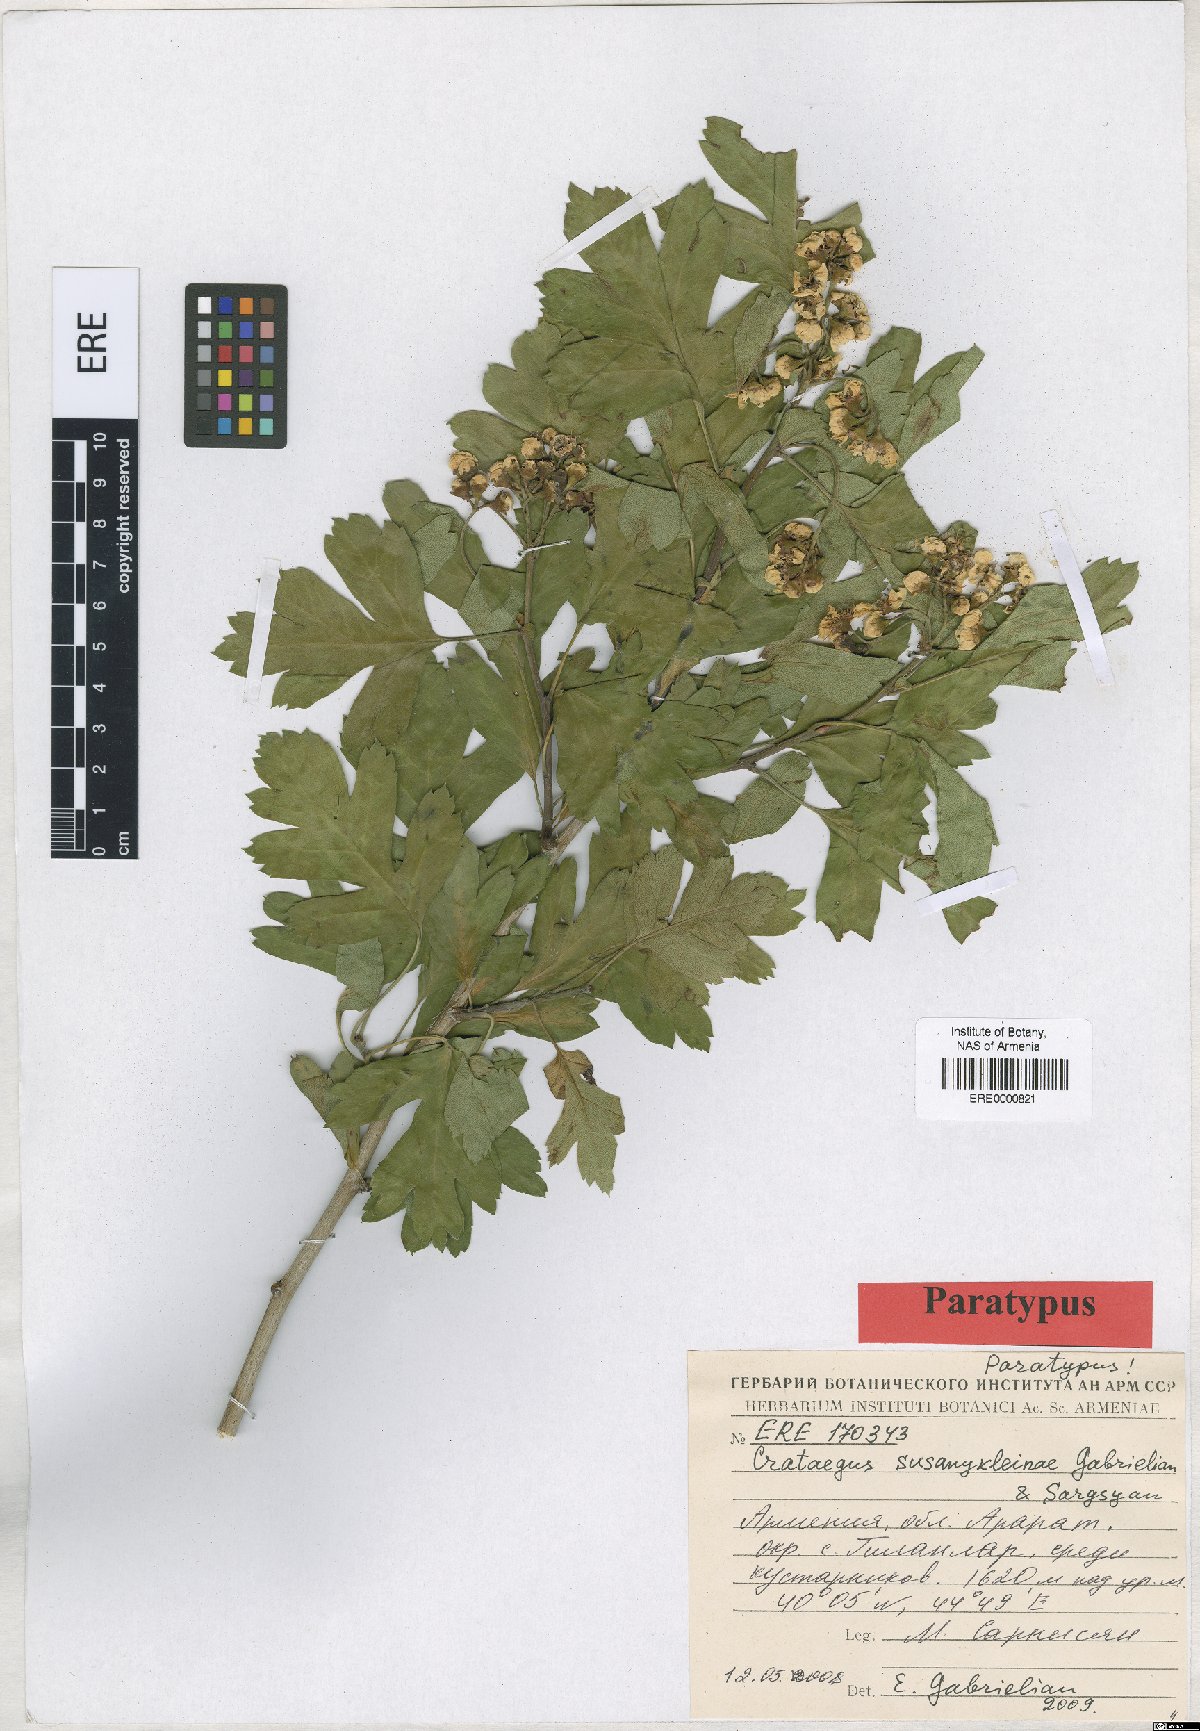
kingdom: Plantae
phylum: Tracheophyta
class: Magnoliopsida
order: Rosales
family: Rosaceae
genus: Crataegus
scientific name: Crataegus
